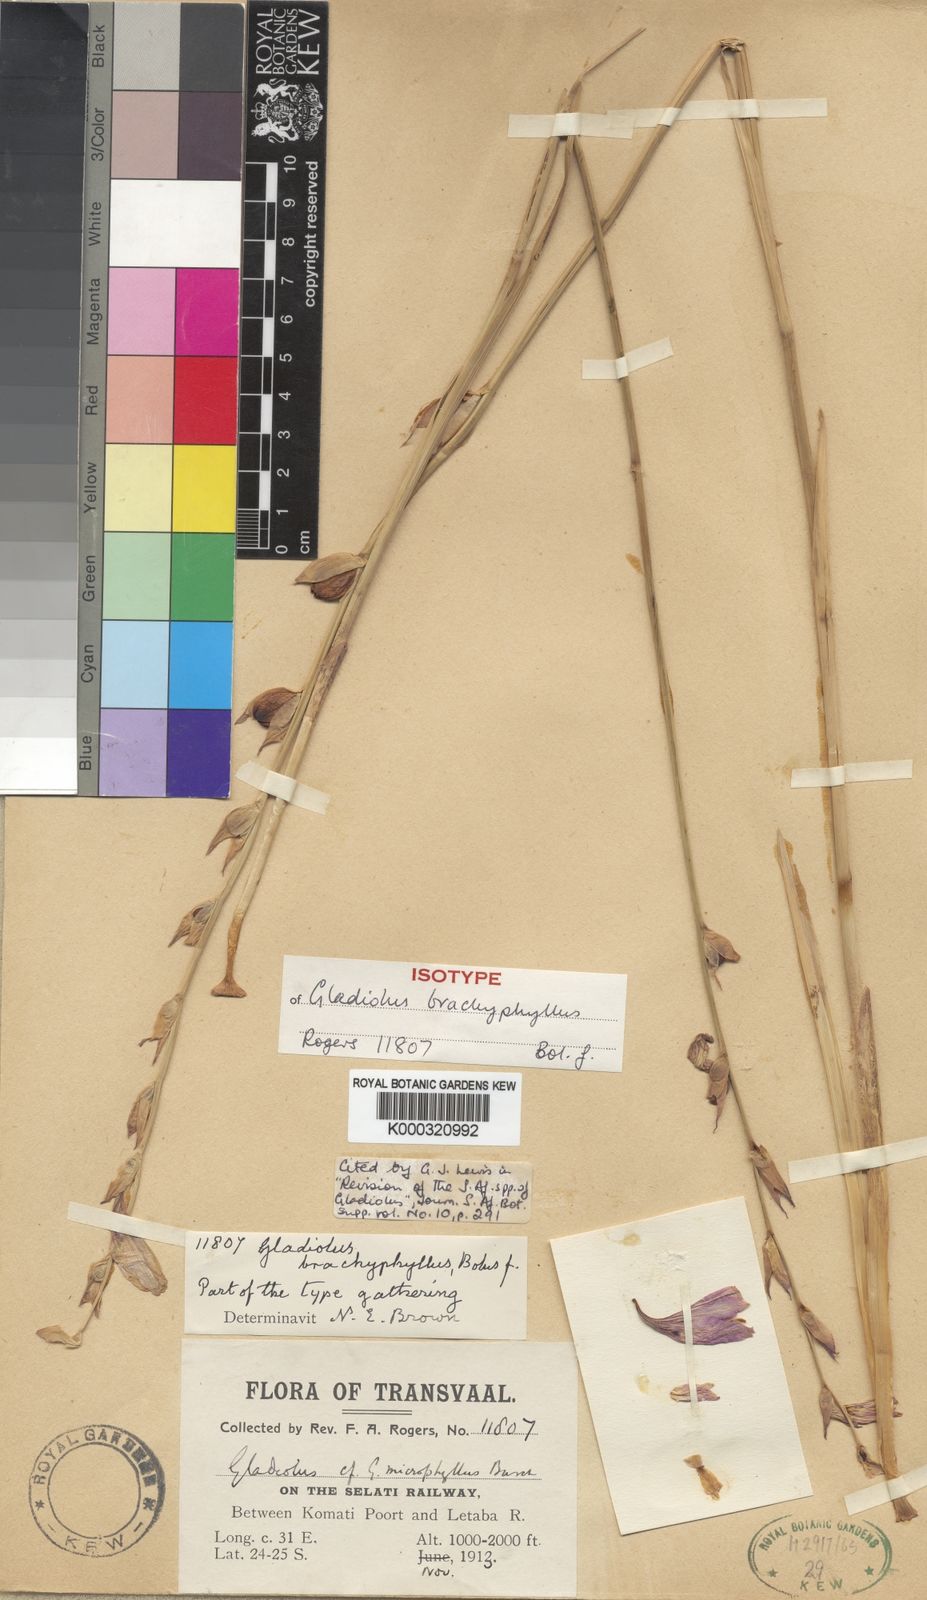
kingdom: Plantae
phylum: Tracheophyta
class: Liliopsida
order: Asparagales
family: Iridaceae
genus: Gladiolus
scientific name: Gladiolus brachyphyllus
